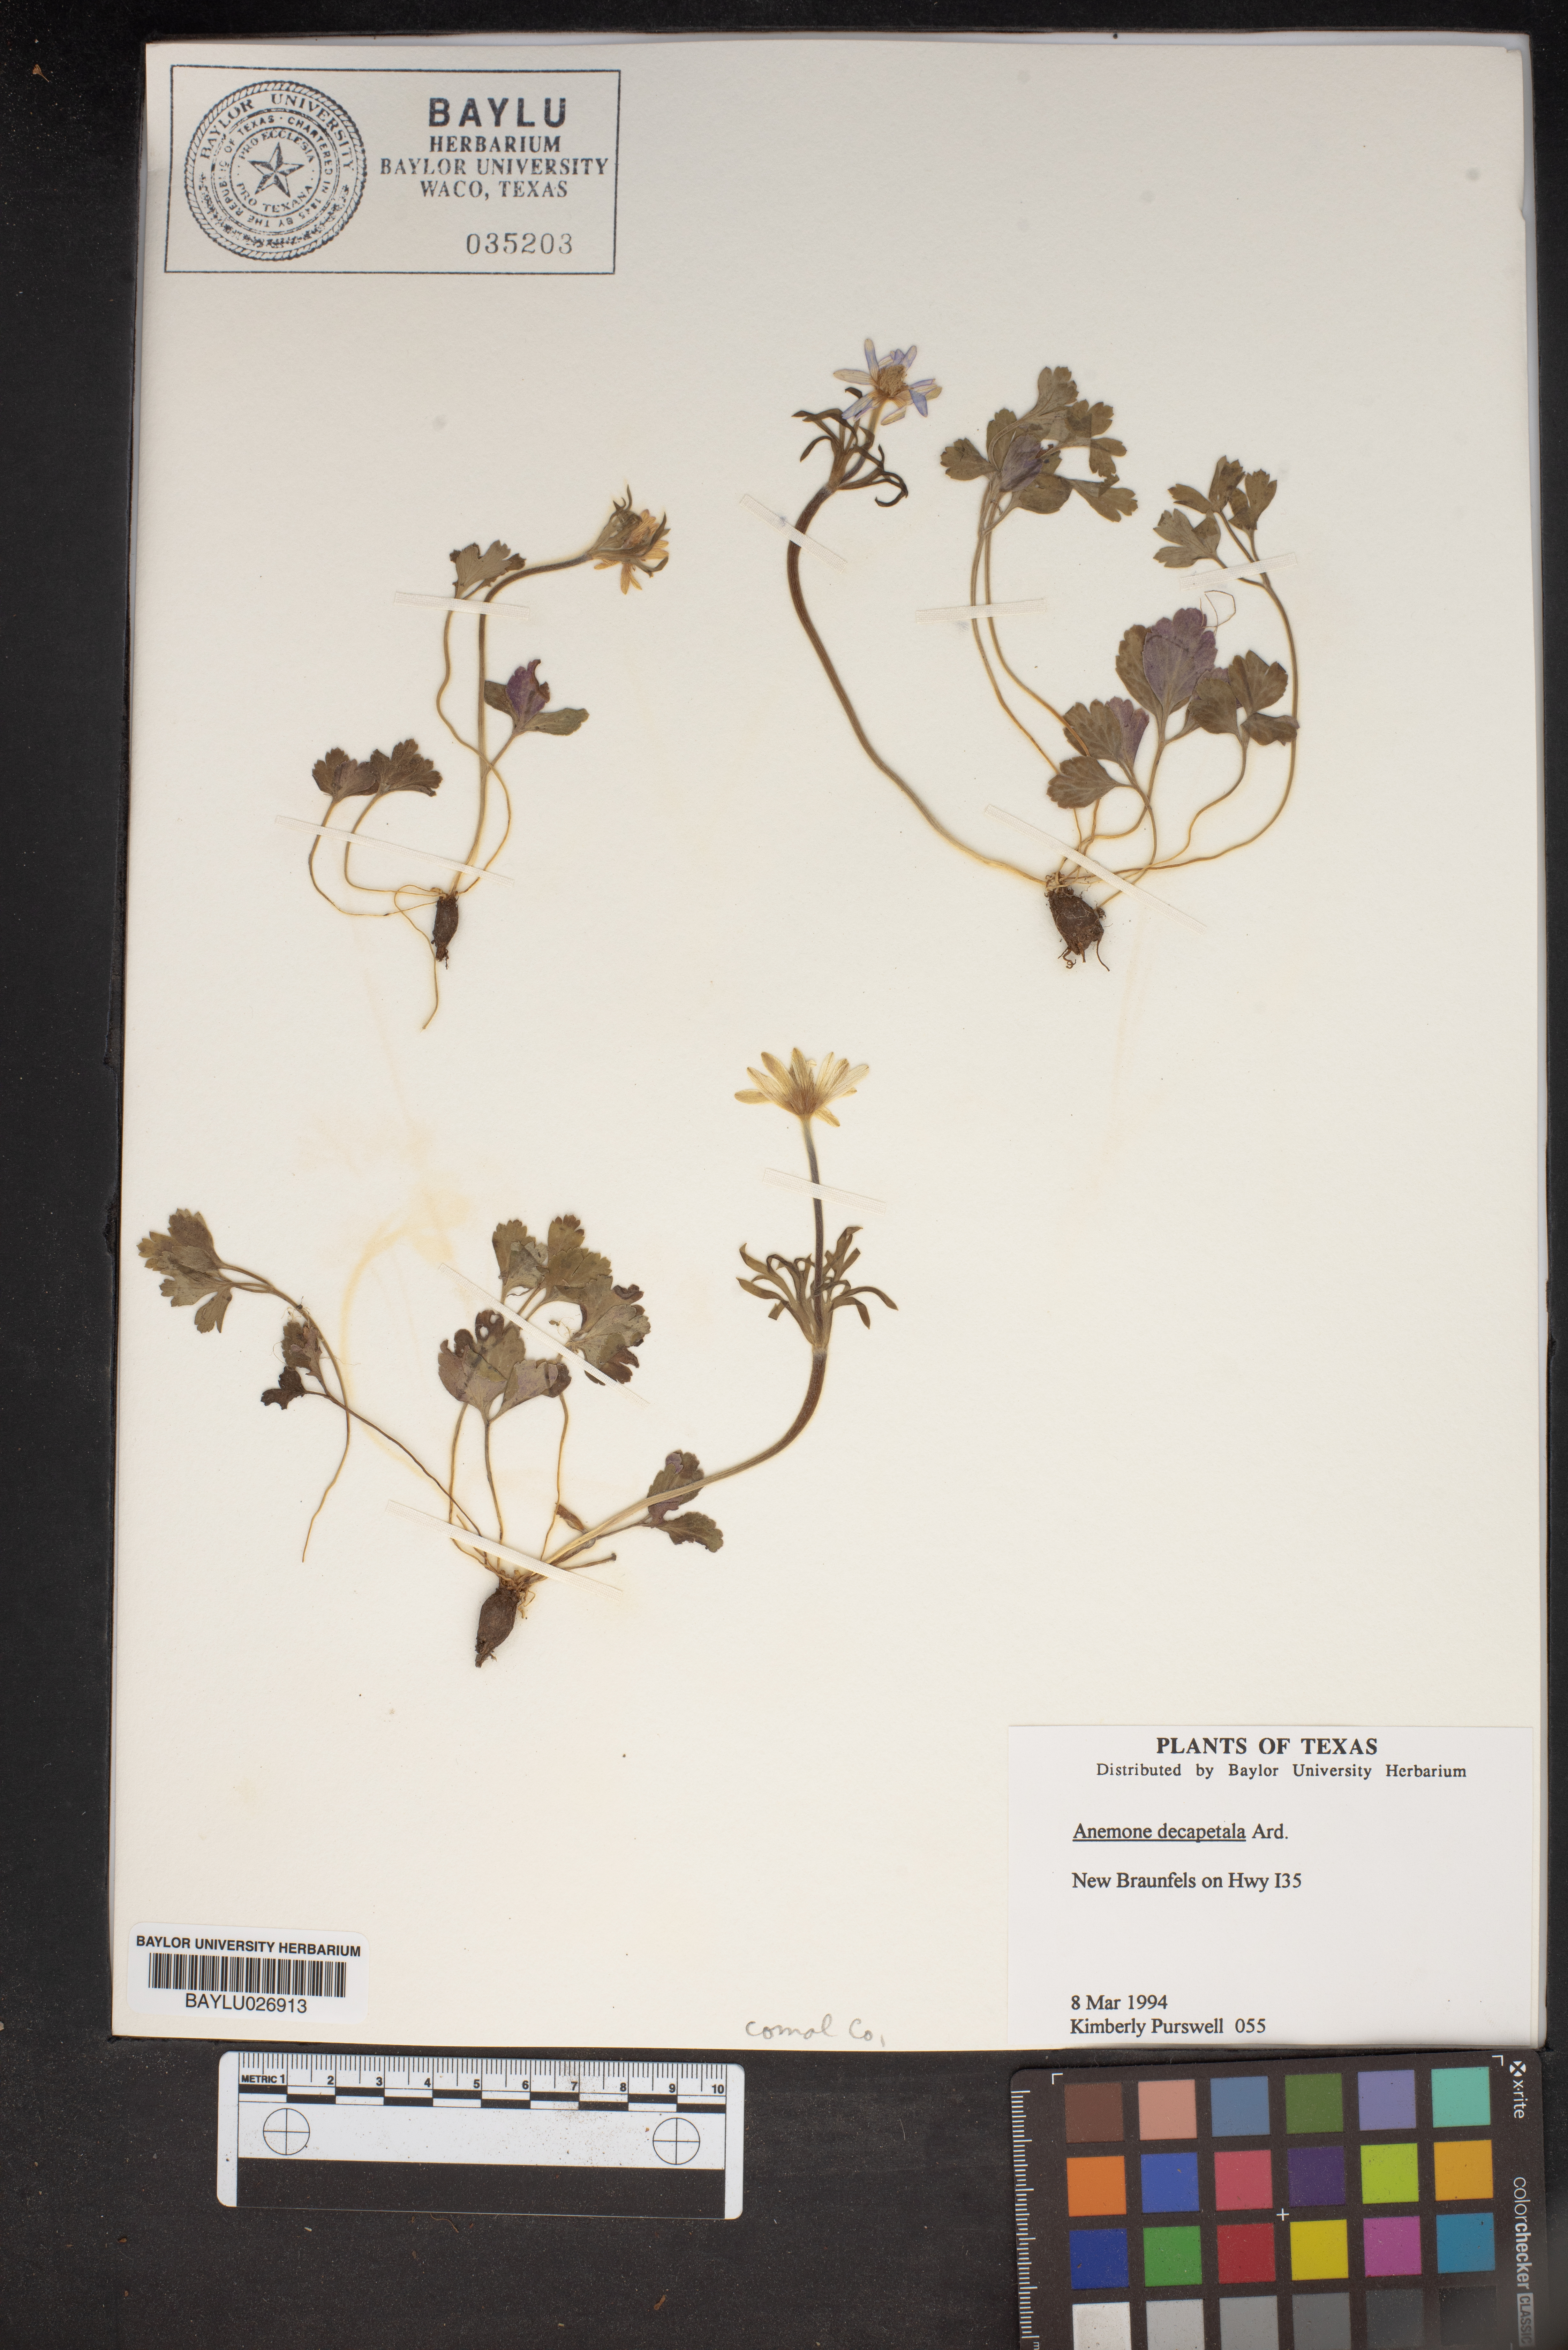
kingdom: Plantae
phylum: Tracheophyta
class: Magnoliopsida
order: Ranunculales
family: Ranunculaceae
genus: Anemone
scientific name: Anemone decapetala
